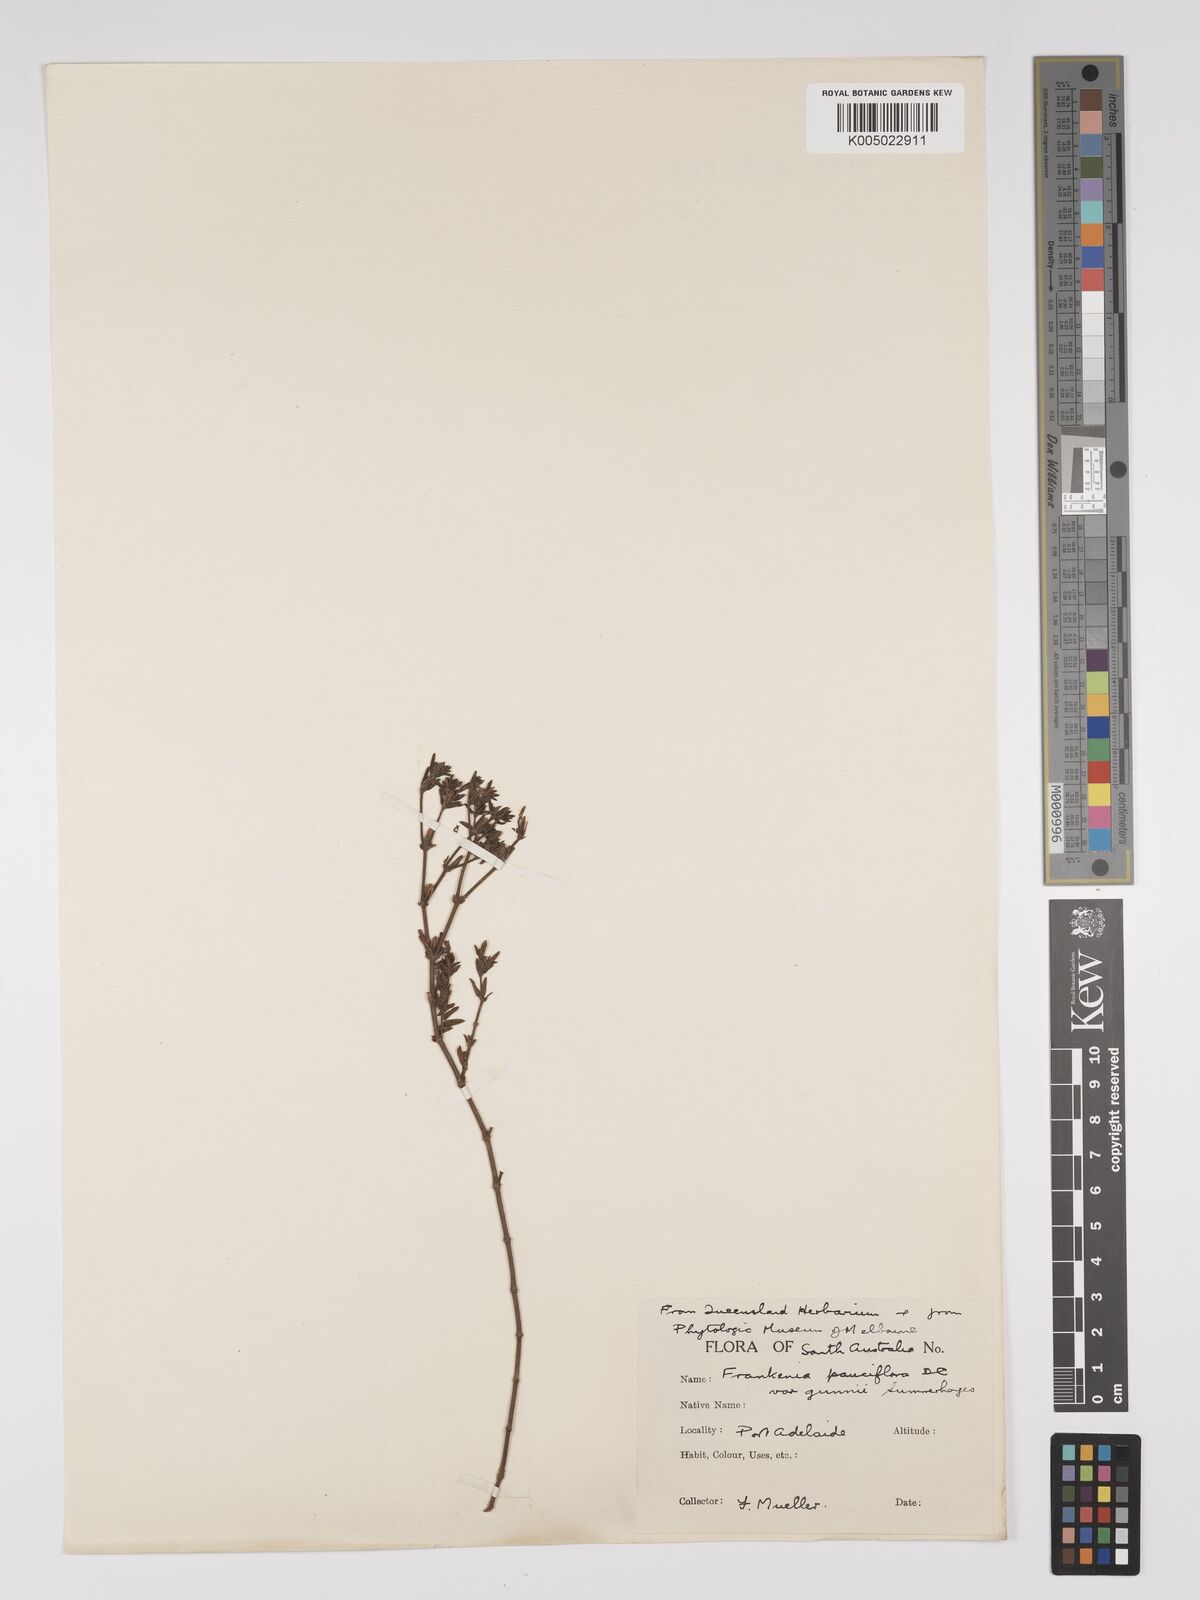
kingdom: Plantae
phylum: Tracheophyta
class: Magnoliopsida
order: Caryophyllales
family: Frankeniaceae
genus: Frankenia
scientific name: Frankenia pauciflora
